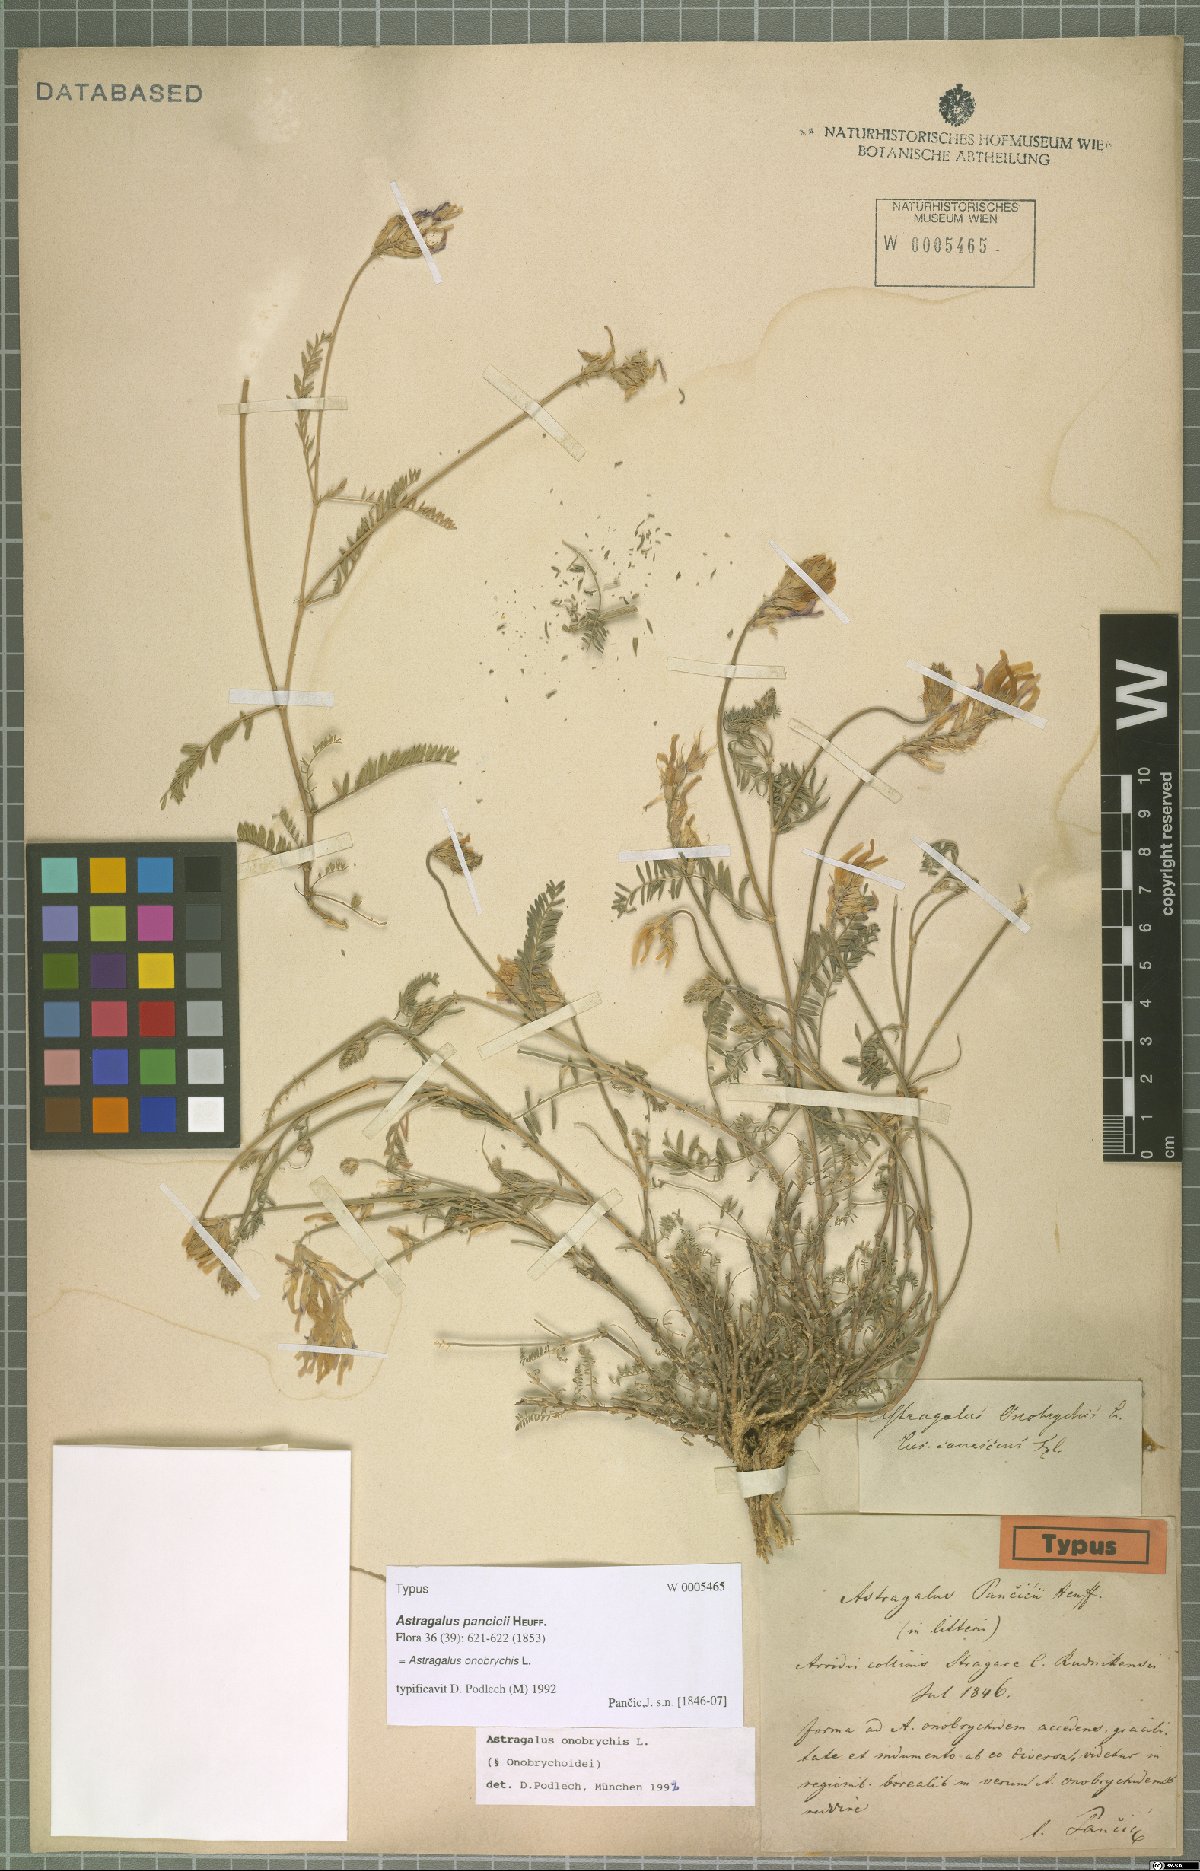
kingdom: Plantae
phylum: Tracheophyta
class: Magnoliopsida
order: Fabales
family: Fabaceae
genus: Astragalus
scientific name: Astragalus onobrychis
